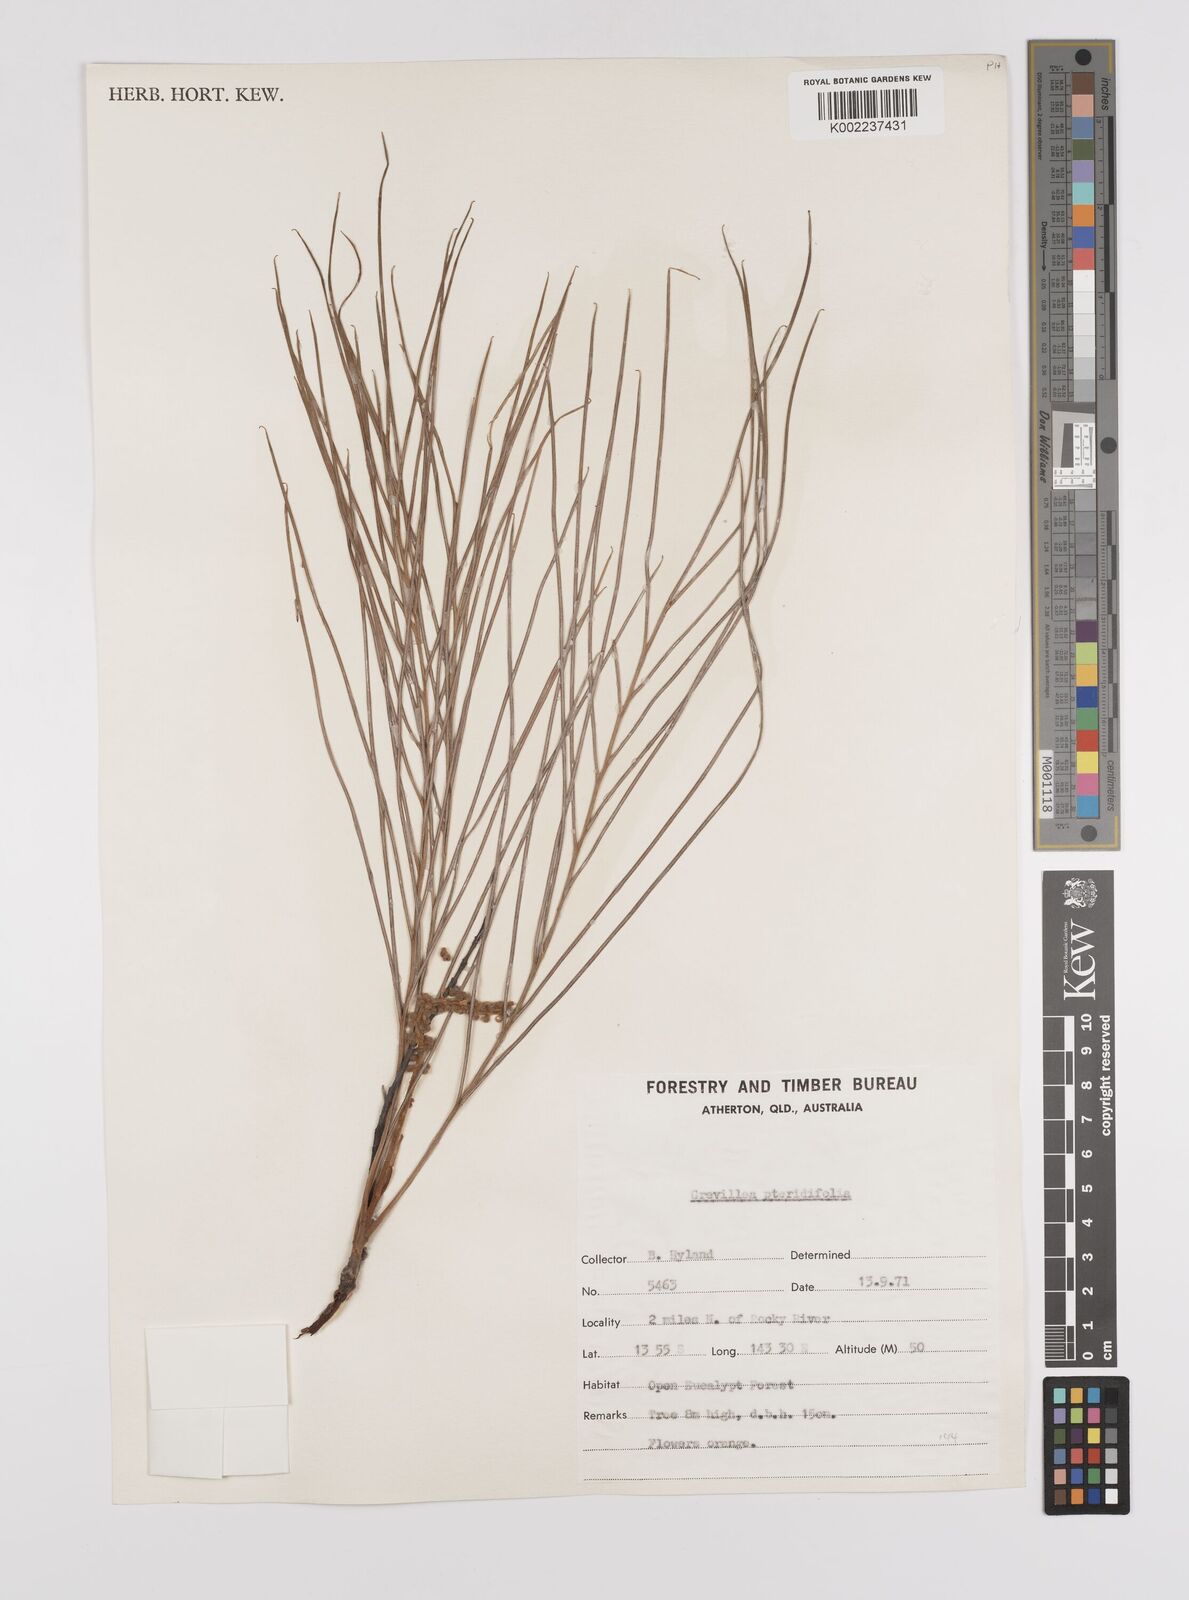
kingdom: Plantae
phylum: Tracheophyta
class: Magnoliopsida
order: Proteales
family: Proteaceae
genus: Grevillea
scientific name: Grevillea pteridifolia
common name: Golden grevillea
